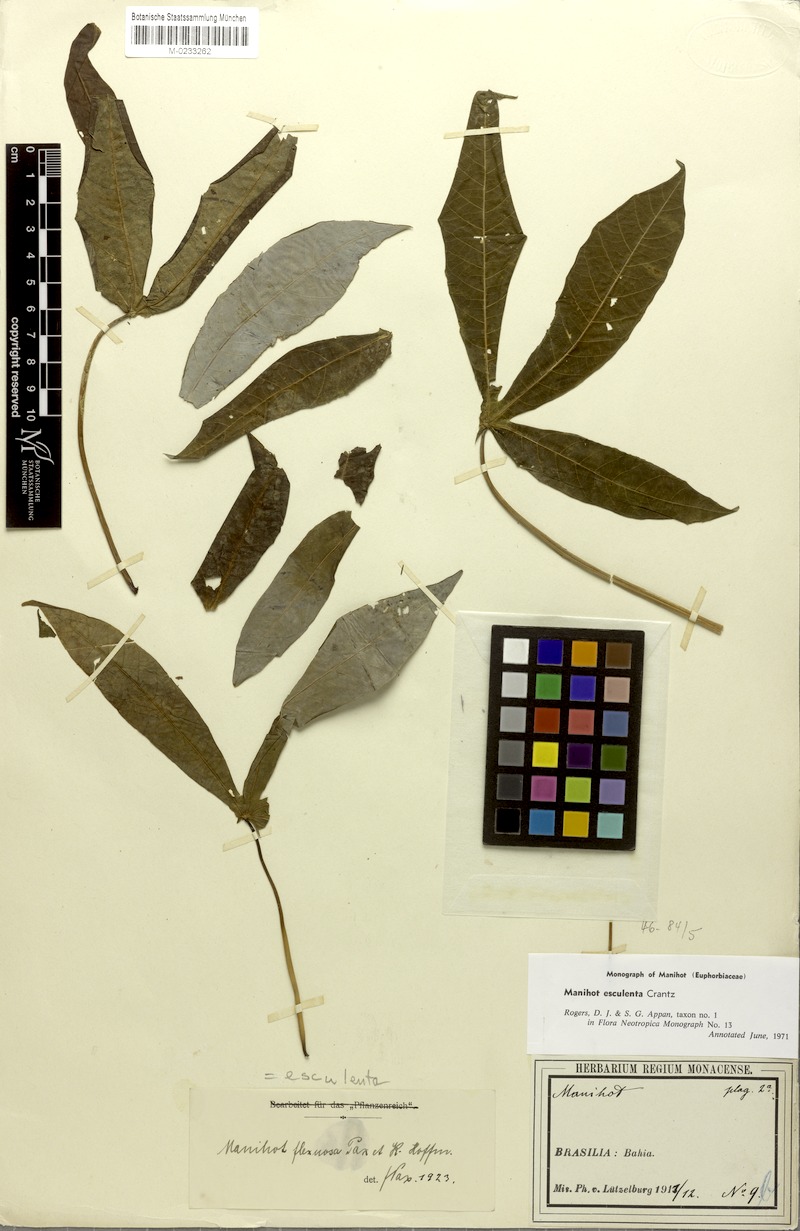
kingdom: Plantae
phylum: Tracheophyta
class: Magnoliopsida
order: Malpighiales
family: Euphorbiaceae
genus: Manihot
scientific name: Manihot esculenta
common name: Cassava
